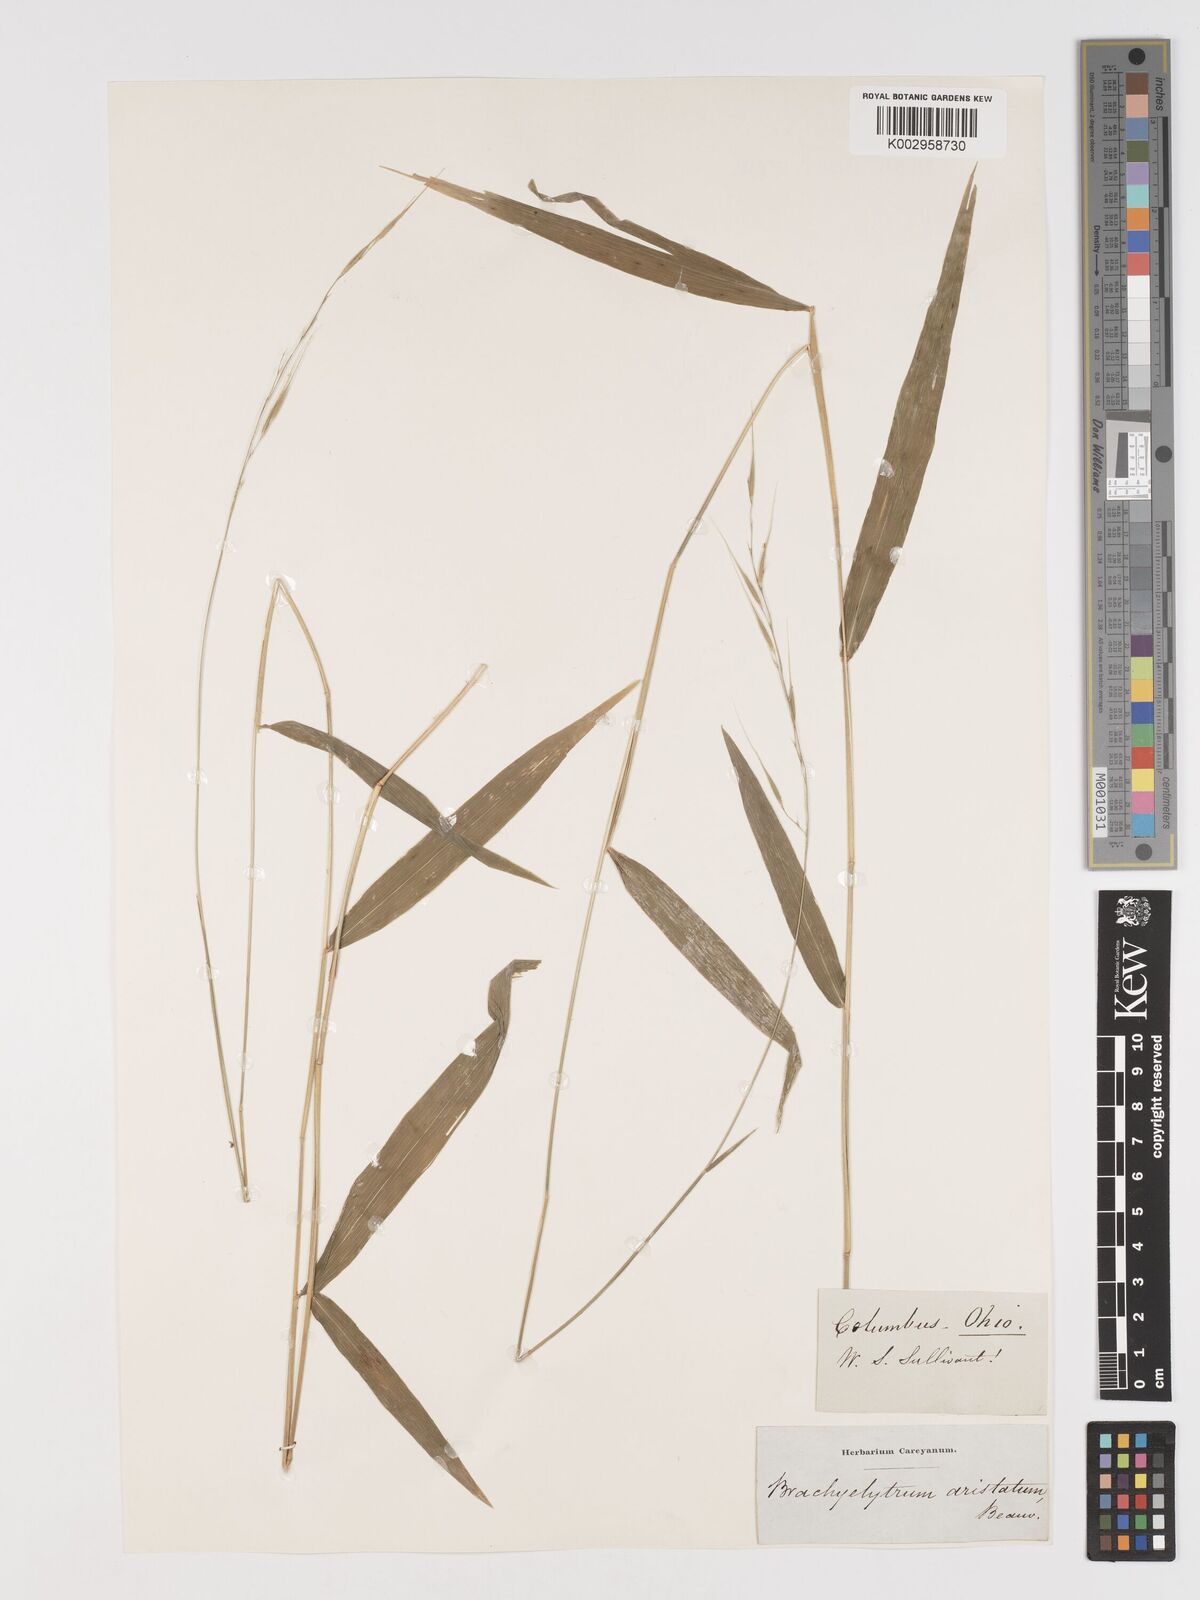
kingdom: Plantae
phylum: Tracheophyta
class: Liliopsida
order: Poales
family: Poaceae
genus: Brachyelytrum
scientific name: Brachyelytrum erectum
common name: Bearded shorthusk
